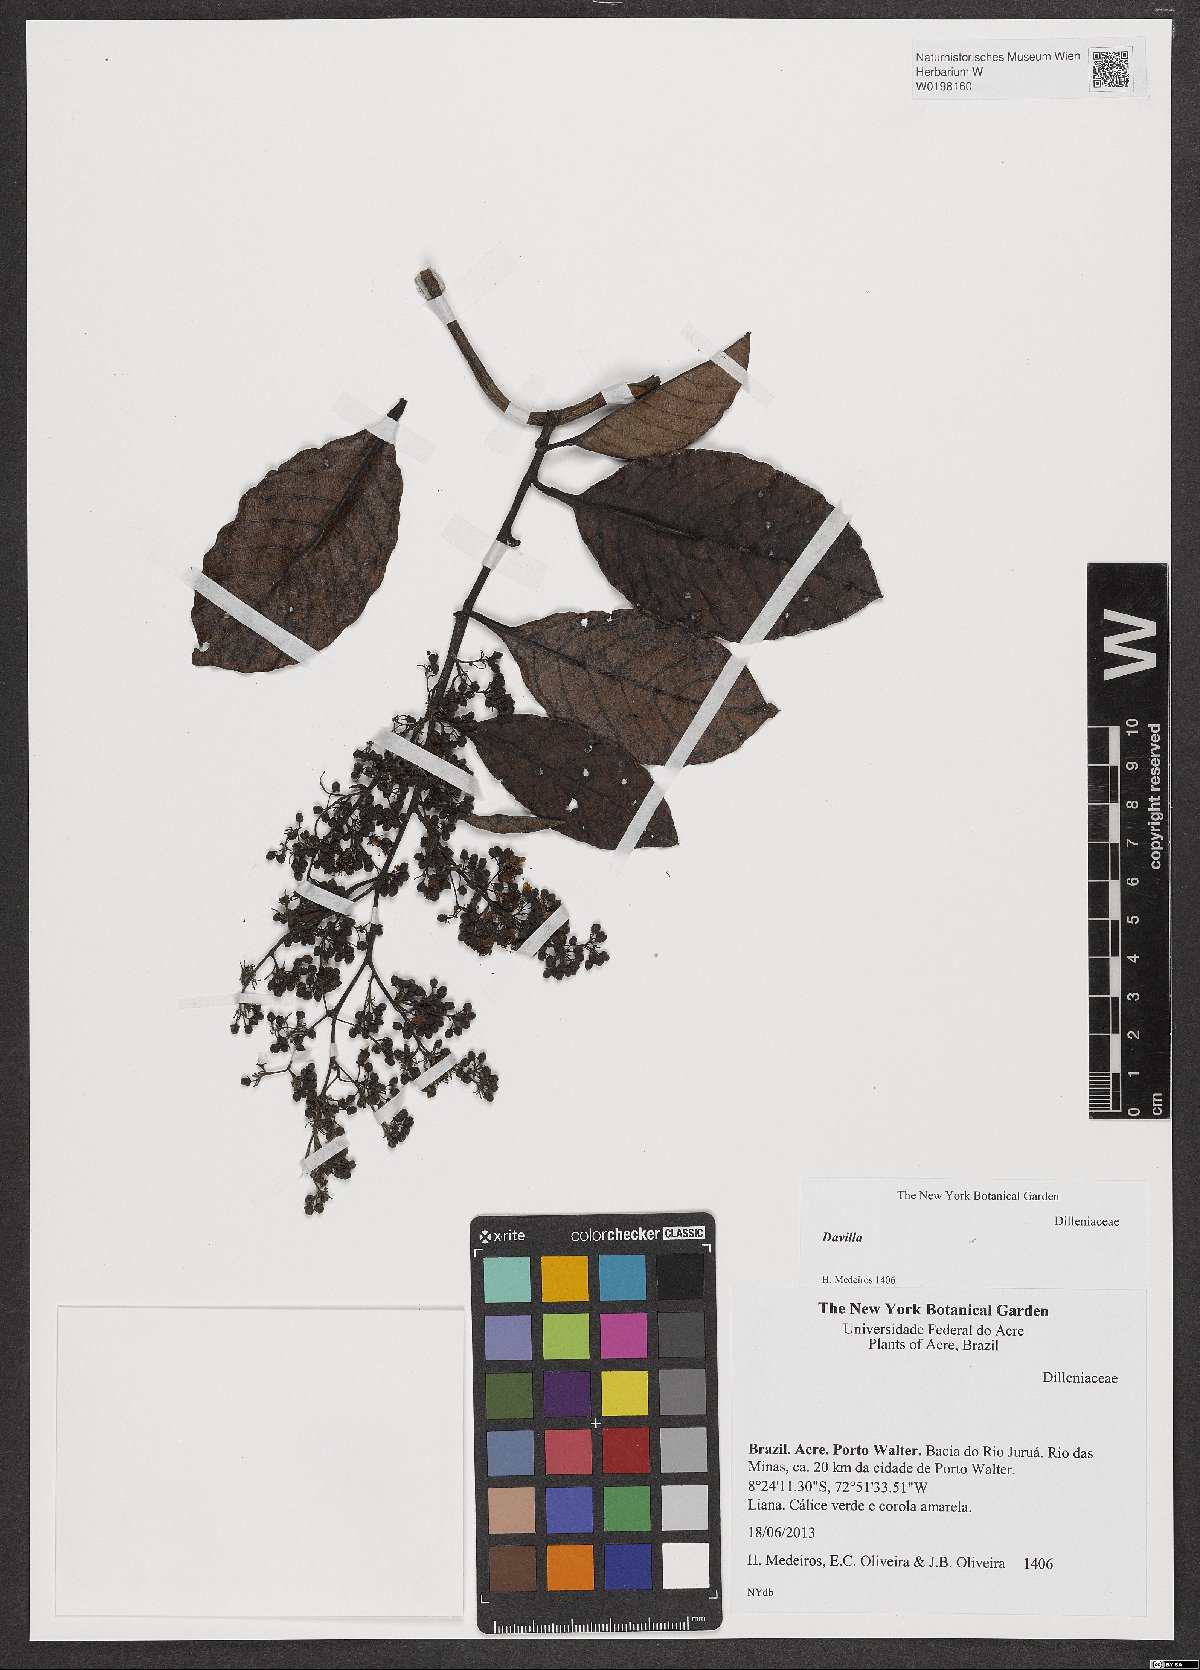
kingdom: Plantae
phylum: Tracheophyta
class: Magnoliopsida
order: Dilleniales
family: Dilleniaceae
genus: Davilla
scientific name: Davilla
